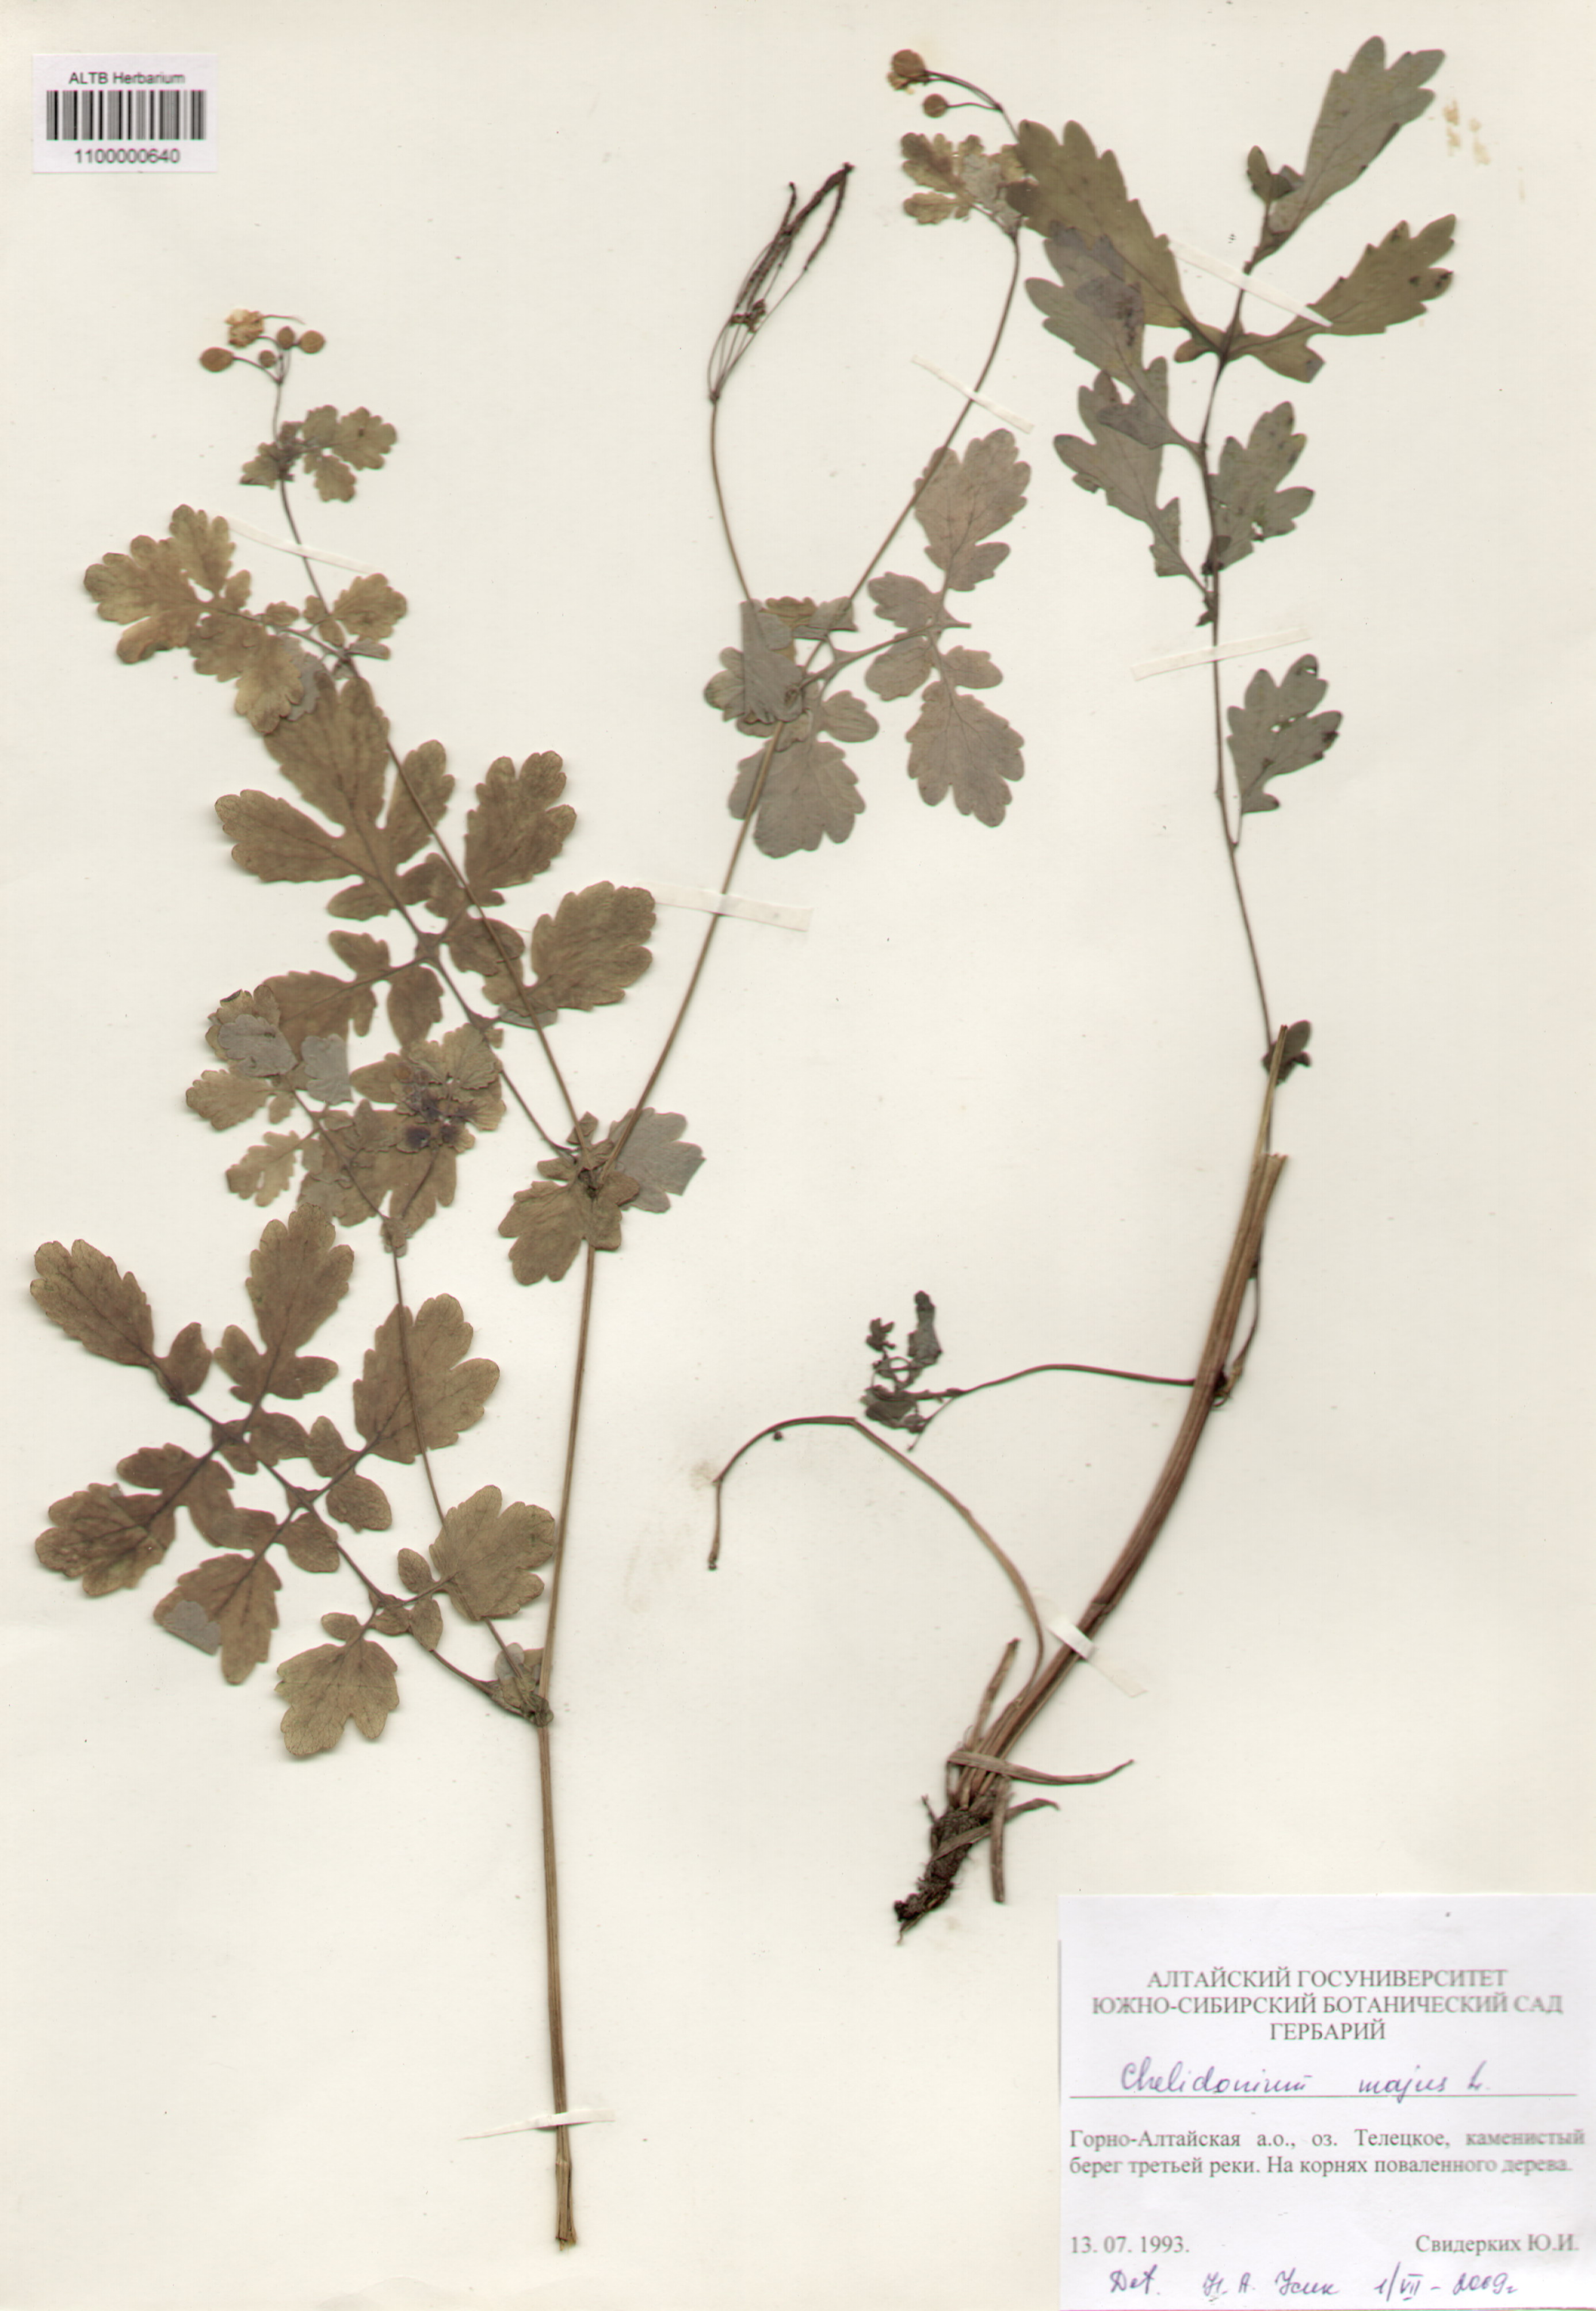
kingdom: Plantae
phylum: Tracheophyta
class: Magnoliopsida
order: Ranunculales
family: Papaveraceae
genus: Chelidonium
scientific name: Chelidonium majus
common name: Greater celandine
